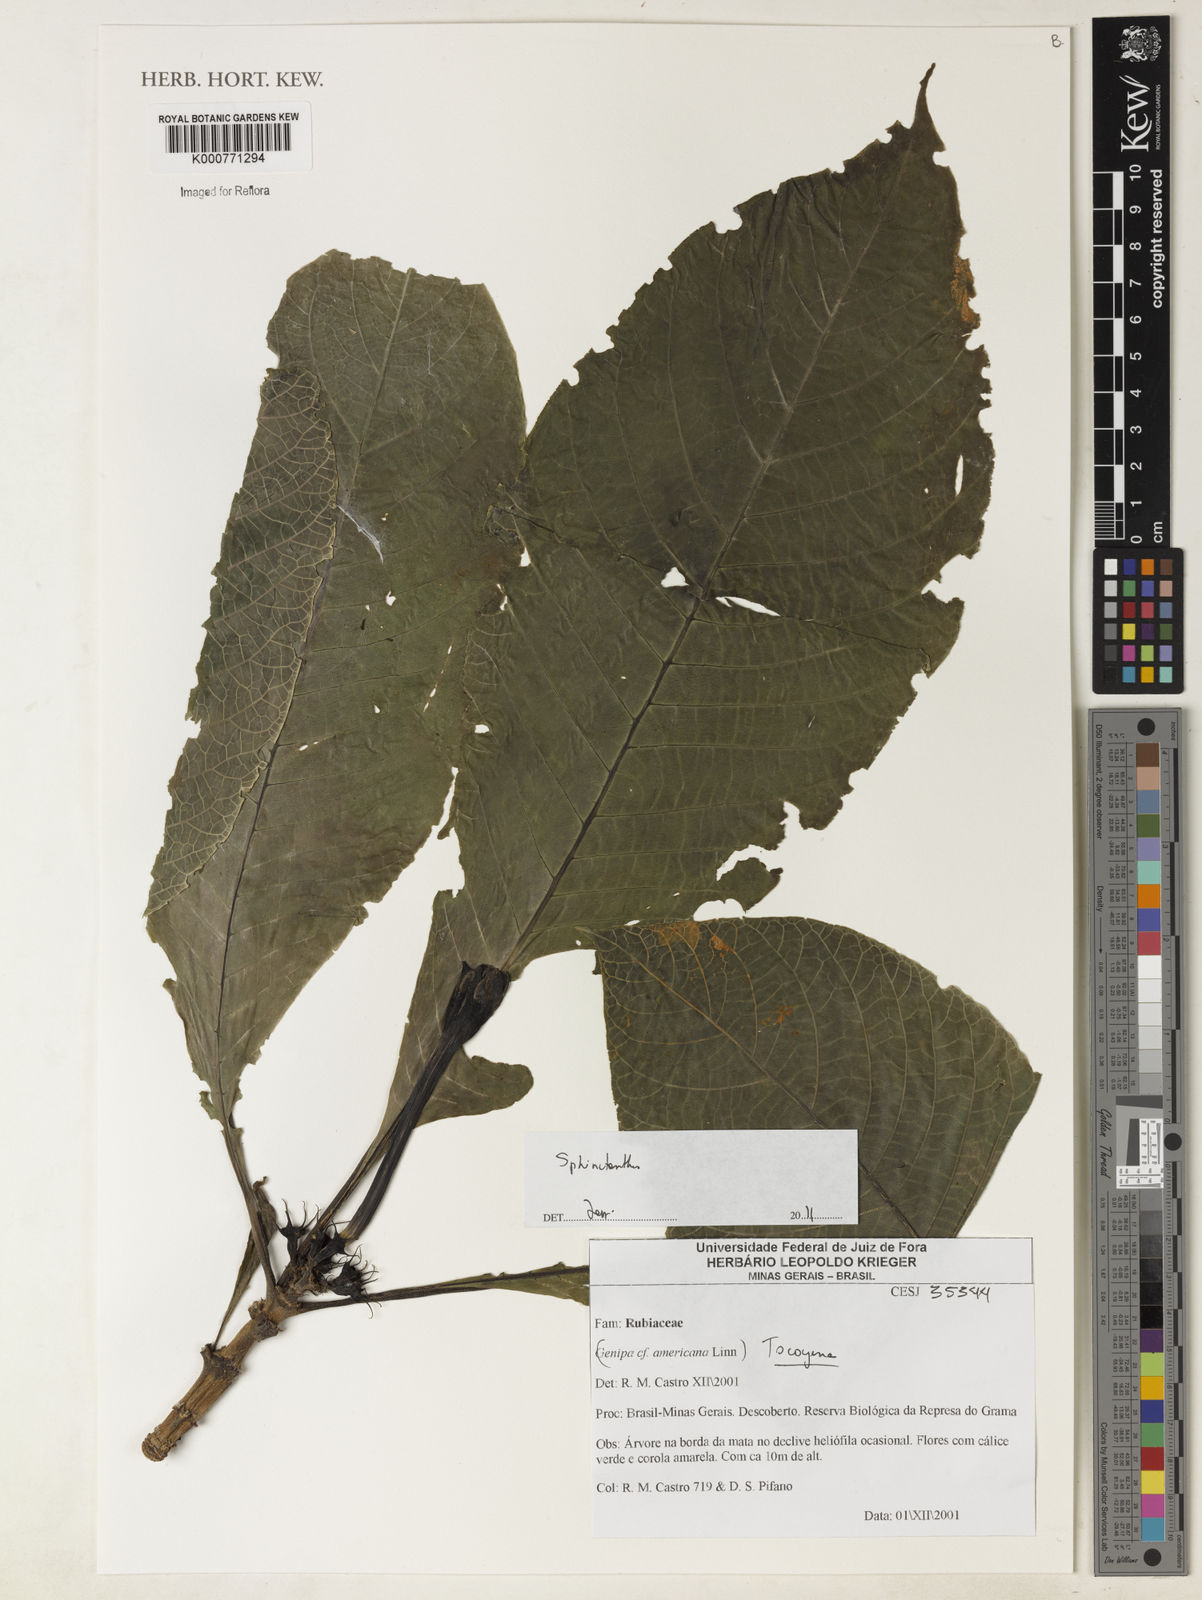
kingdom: Plantae
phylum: Tracheophyta
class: Magnoliopsida
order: Gentianales
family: Rubiaceae
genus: Tocoyena
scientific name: Tocoyena
